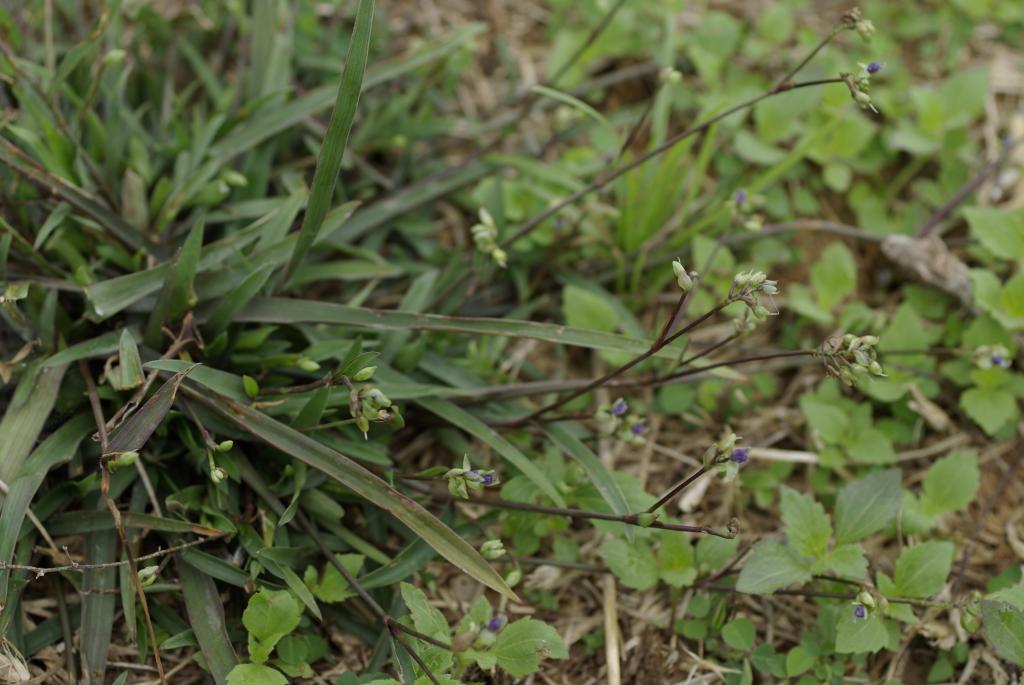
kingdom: Plantae
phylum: Tracheophyta
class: Liliopsida
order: Commelinales
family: Commelinaceae
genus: Murdannia
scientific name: Murdannia loriformis
